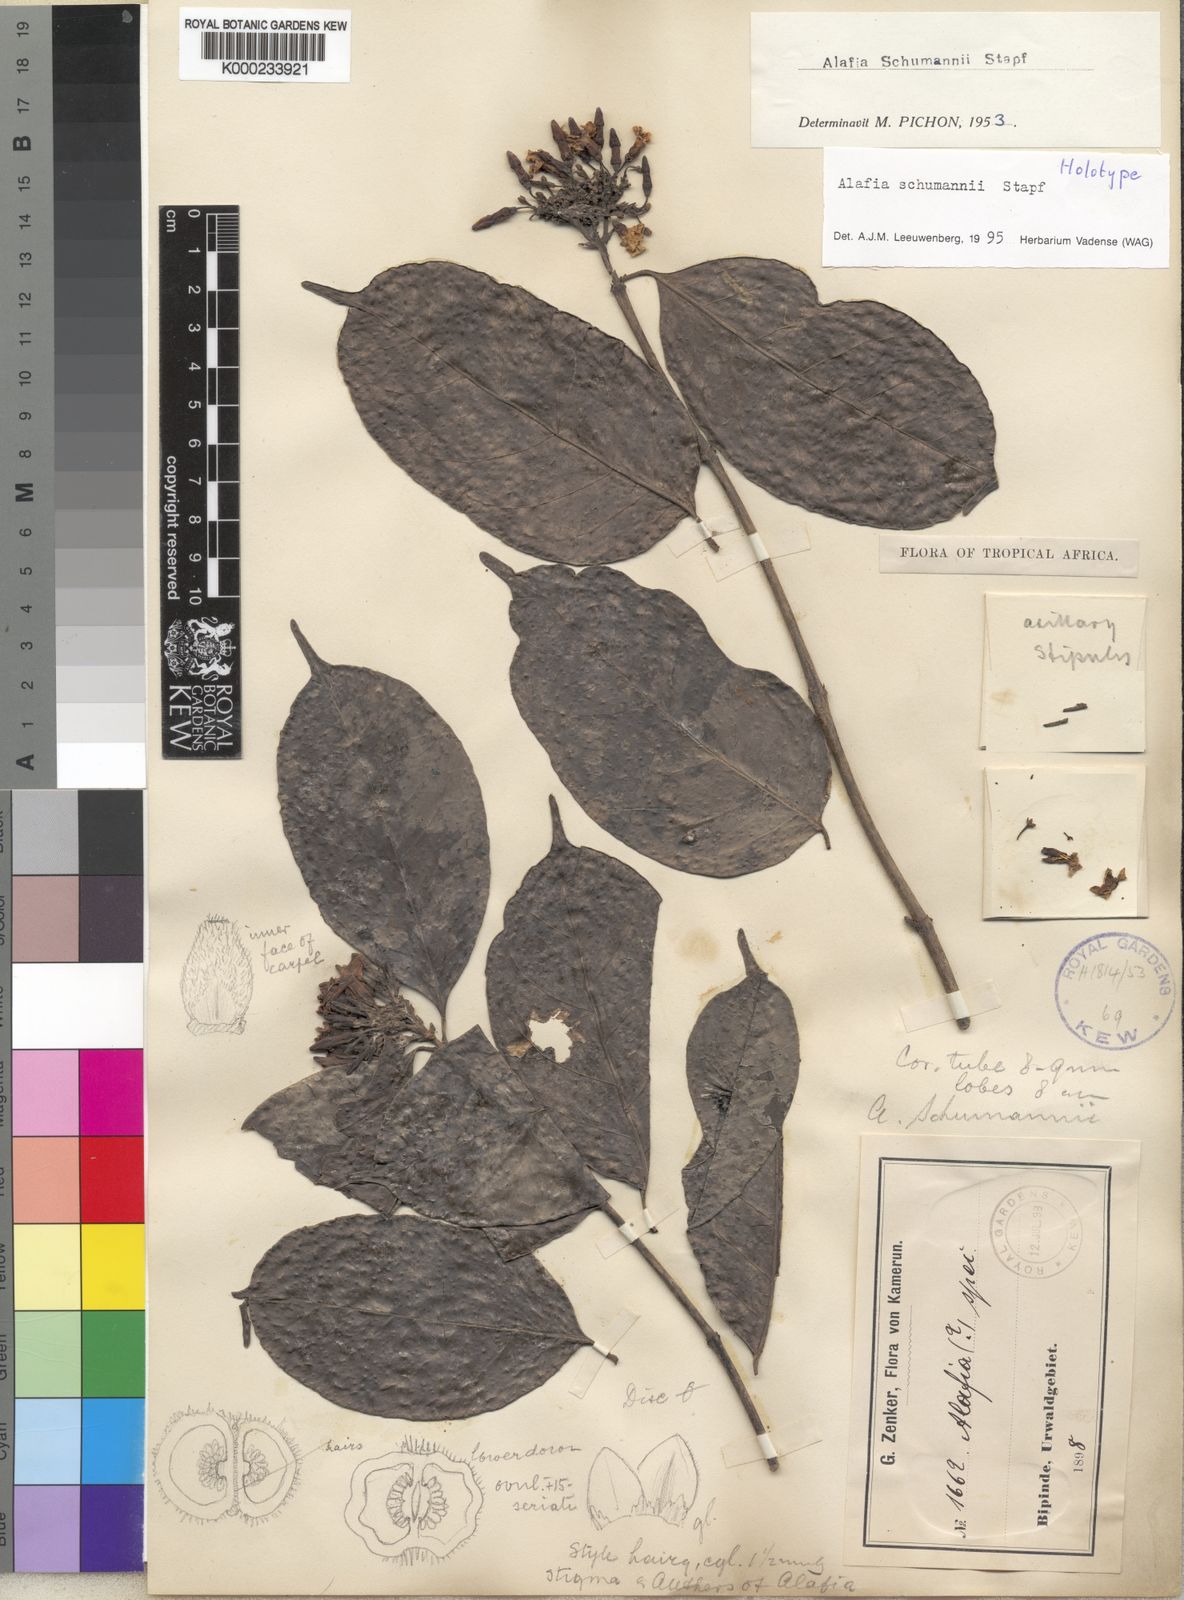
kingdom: Plantae
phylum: Tracheophyta
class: Magnoliopsida
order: Gentianales
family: Apocynaceae
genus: Alafia
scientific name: Alafia schumannii
